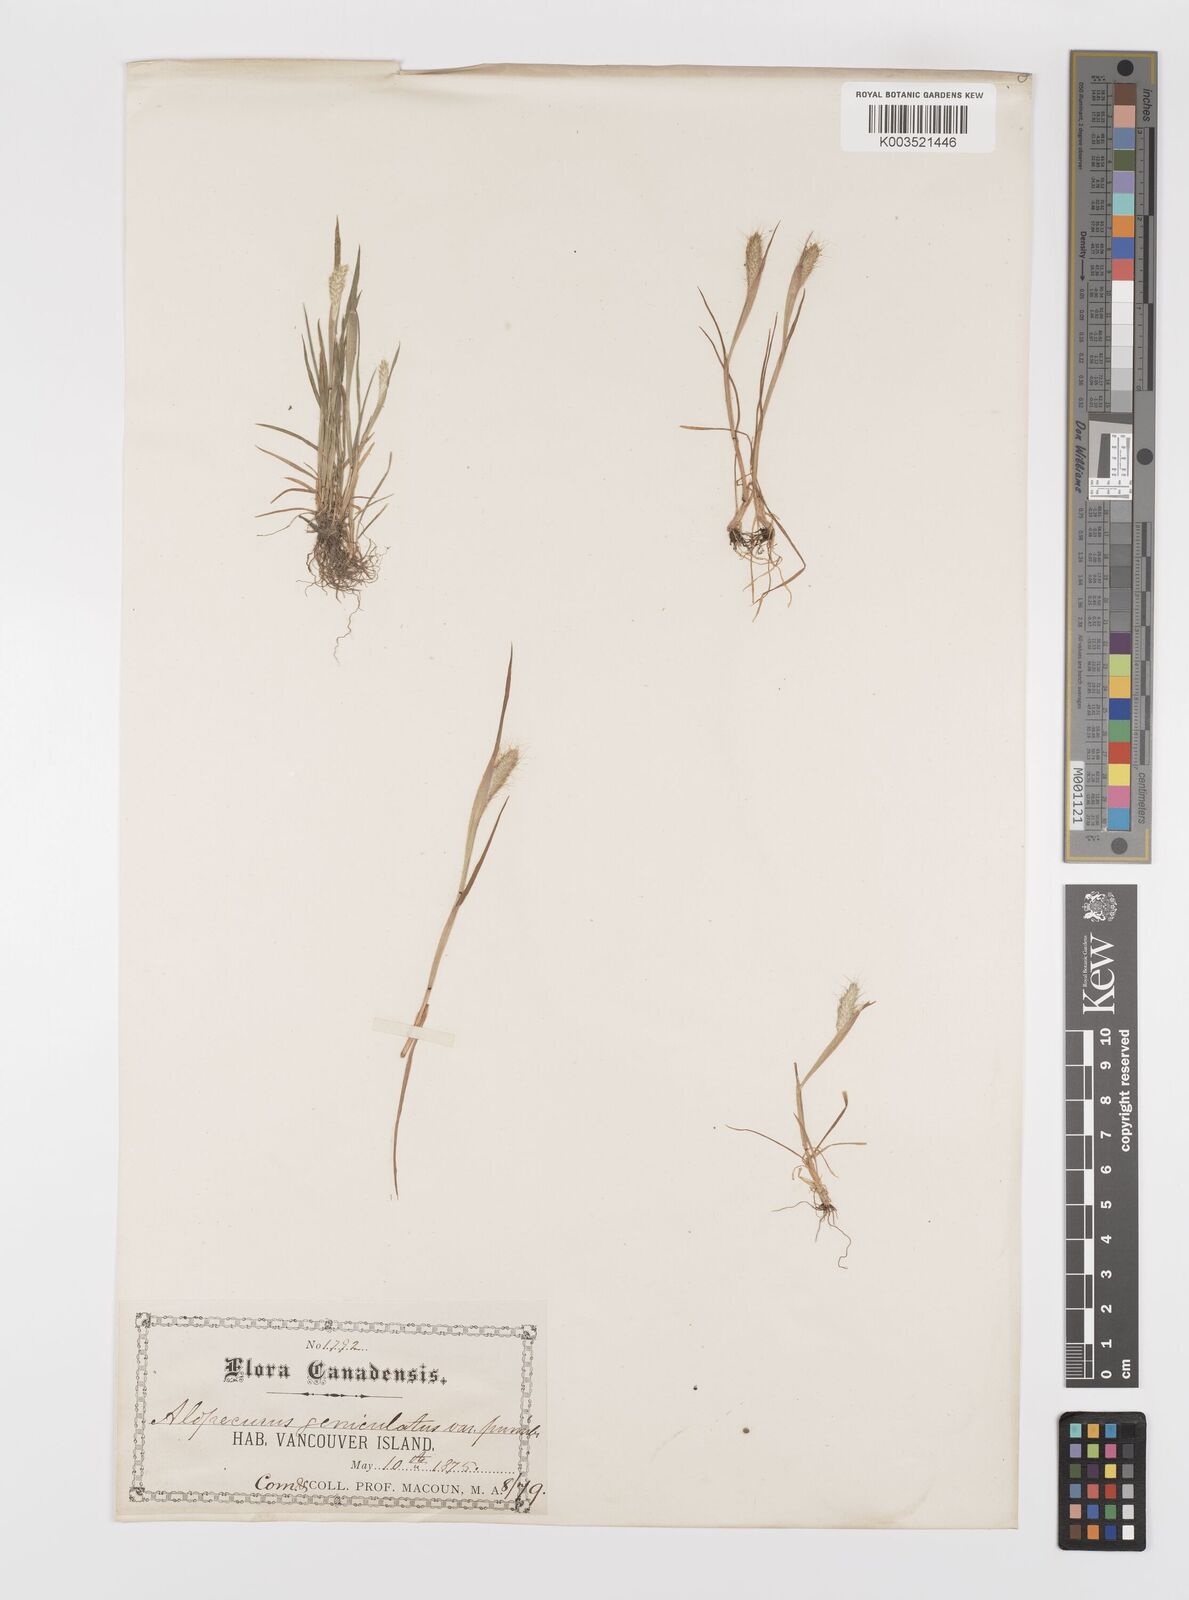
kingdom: Plantae
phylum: Tracheophyta
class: Liliopsida
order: Poales
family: Poaceae
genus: Alopecurus
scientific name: Alopecurus saccatus
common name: Pacific foxtail
